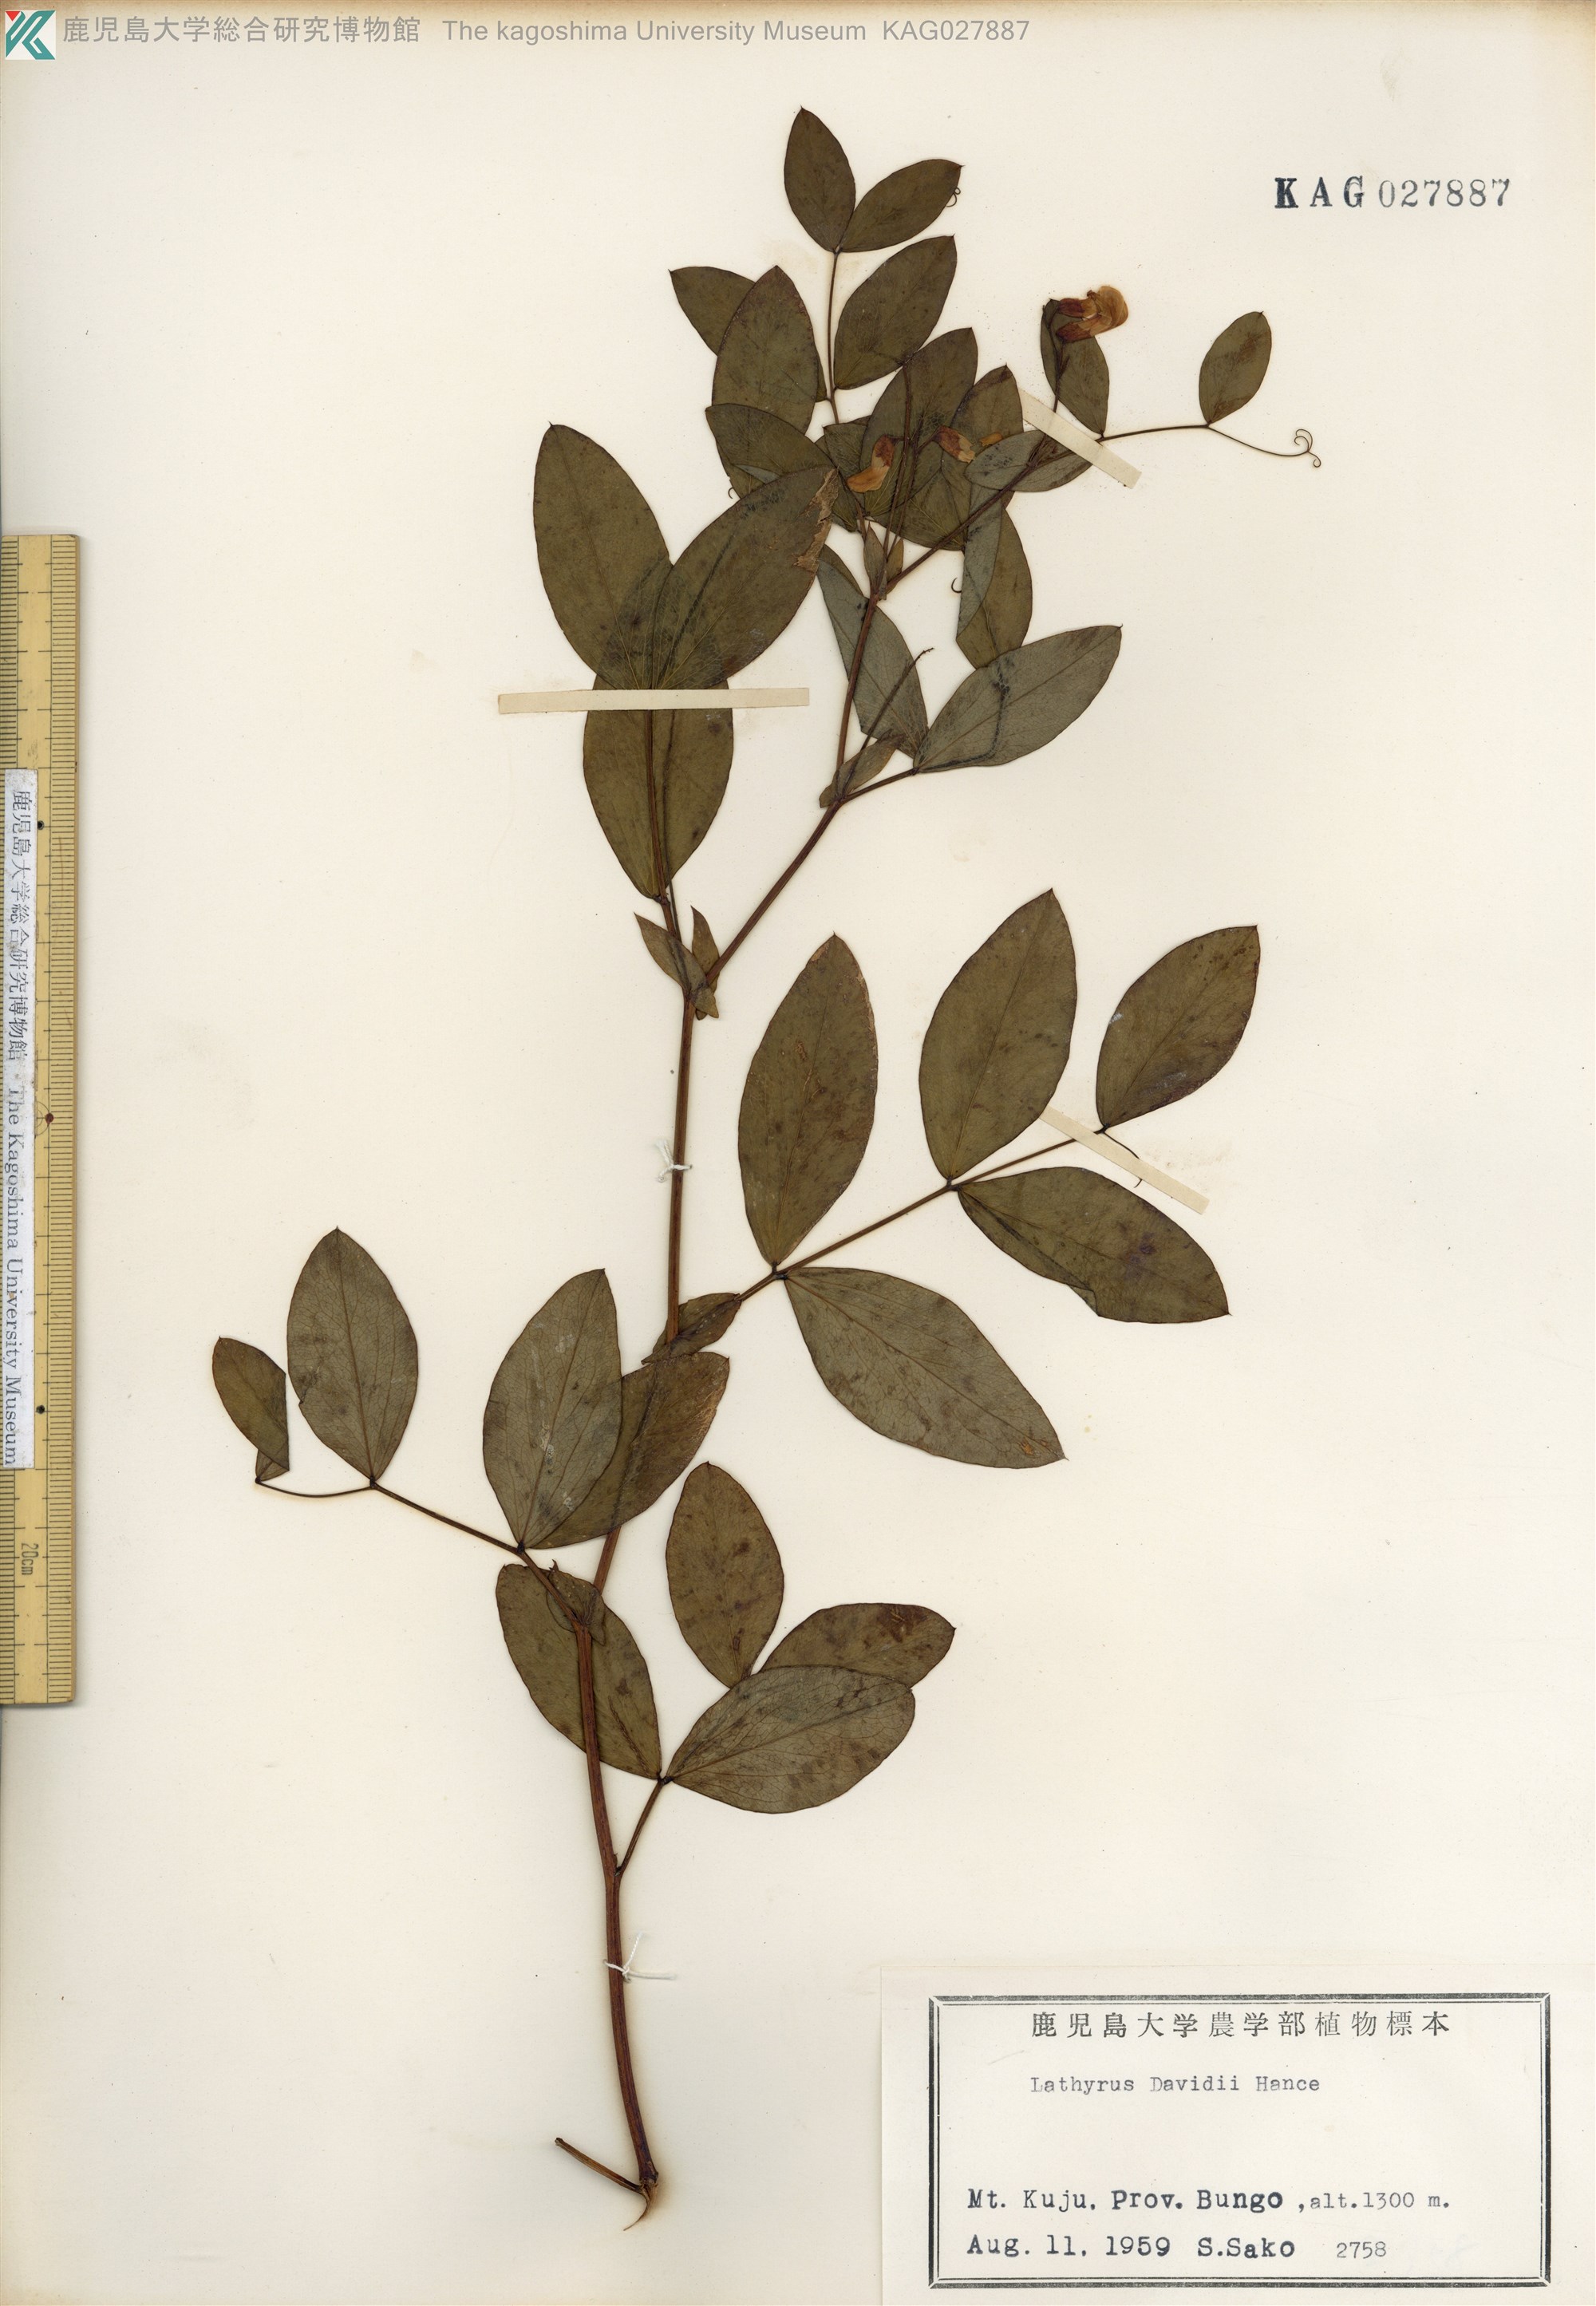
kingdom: Plantae
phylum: Tracheophyta
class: Magnoliopsida
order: Fabales
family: Fabaceae
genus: Lathyrus
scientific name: Lathyrus davidii
